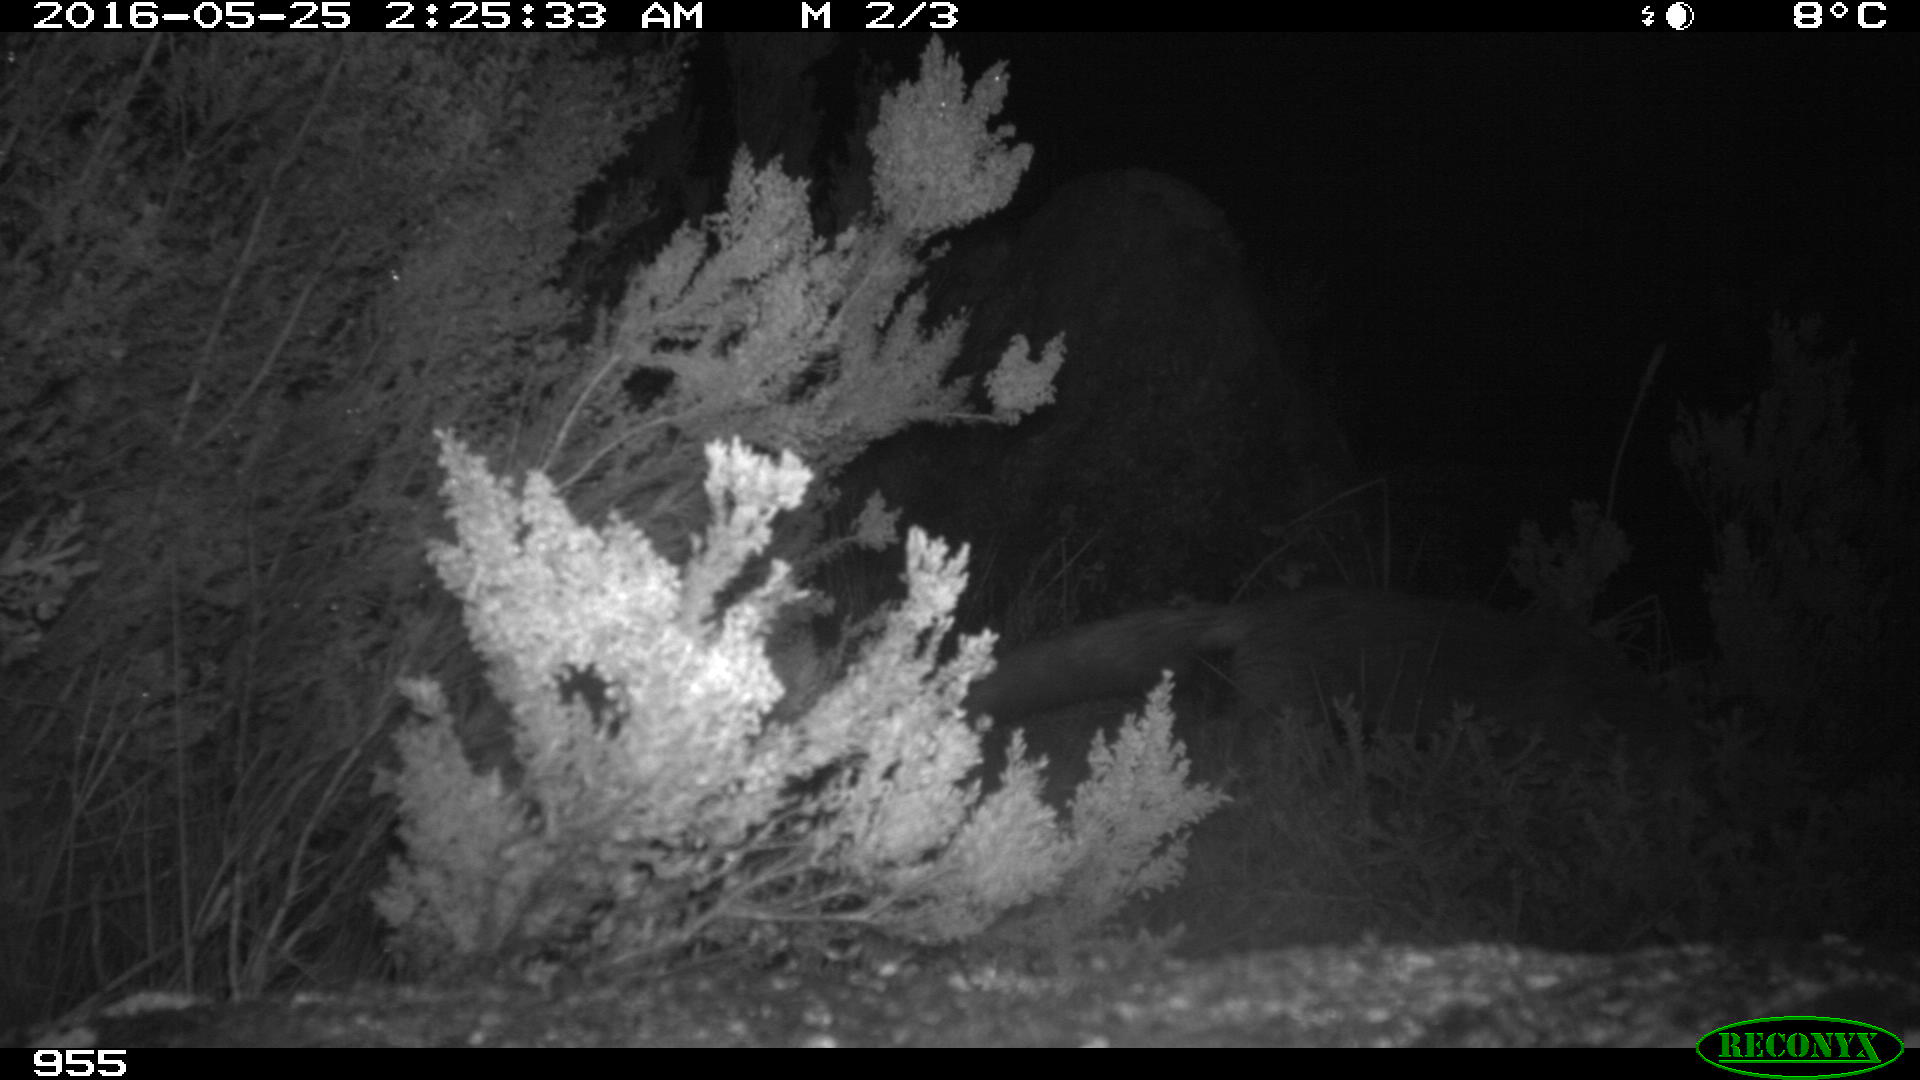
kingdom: Animalia
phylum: Chordata
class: Mammalia
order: Carnivora
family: Canidae
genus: Vulpes
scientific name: Vulpes vulpes
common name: Red fox
